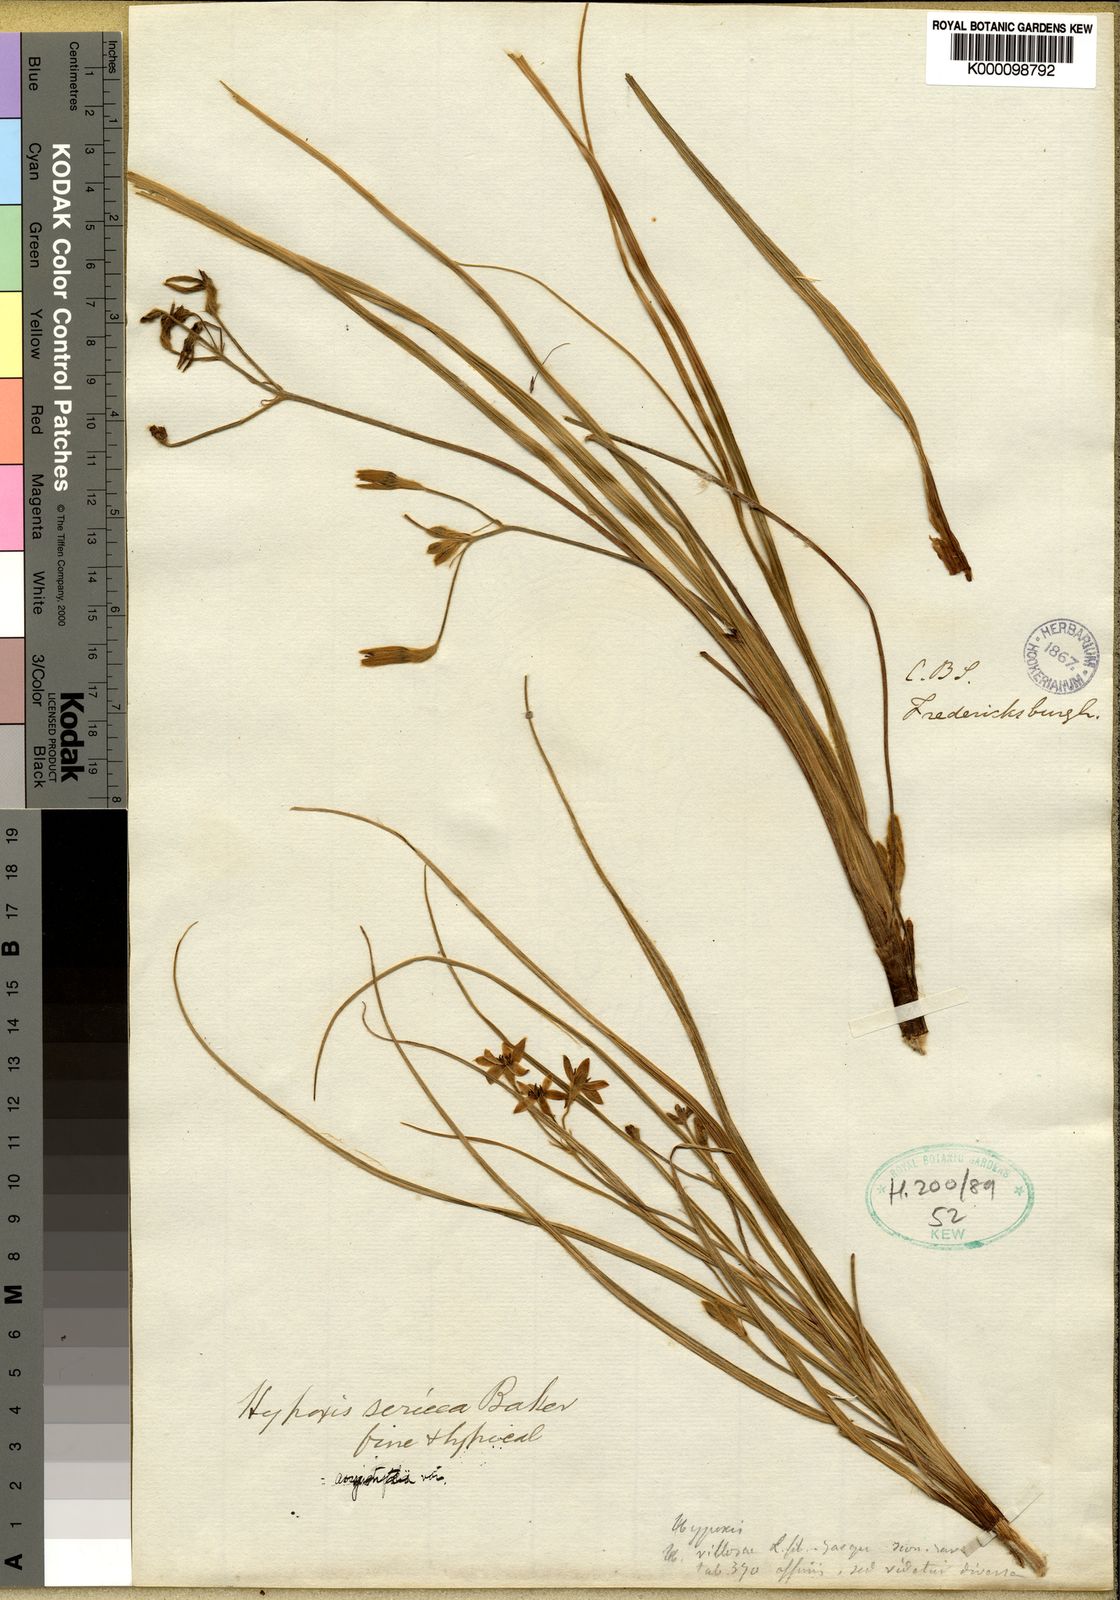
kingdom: Plantae
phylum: Tracheophyta
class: Liliopsida
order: Asparagales
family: Hypoxidaceae
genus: Hypoxis
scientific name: Hypoxis argentea
